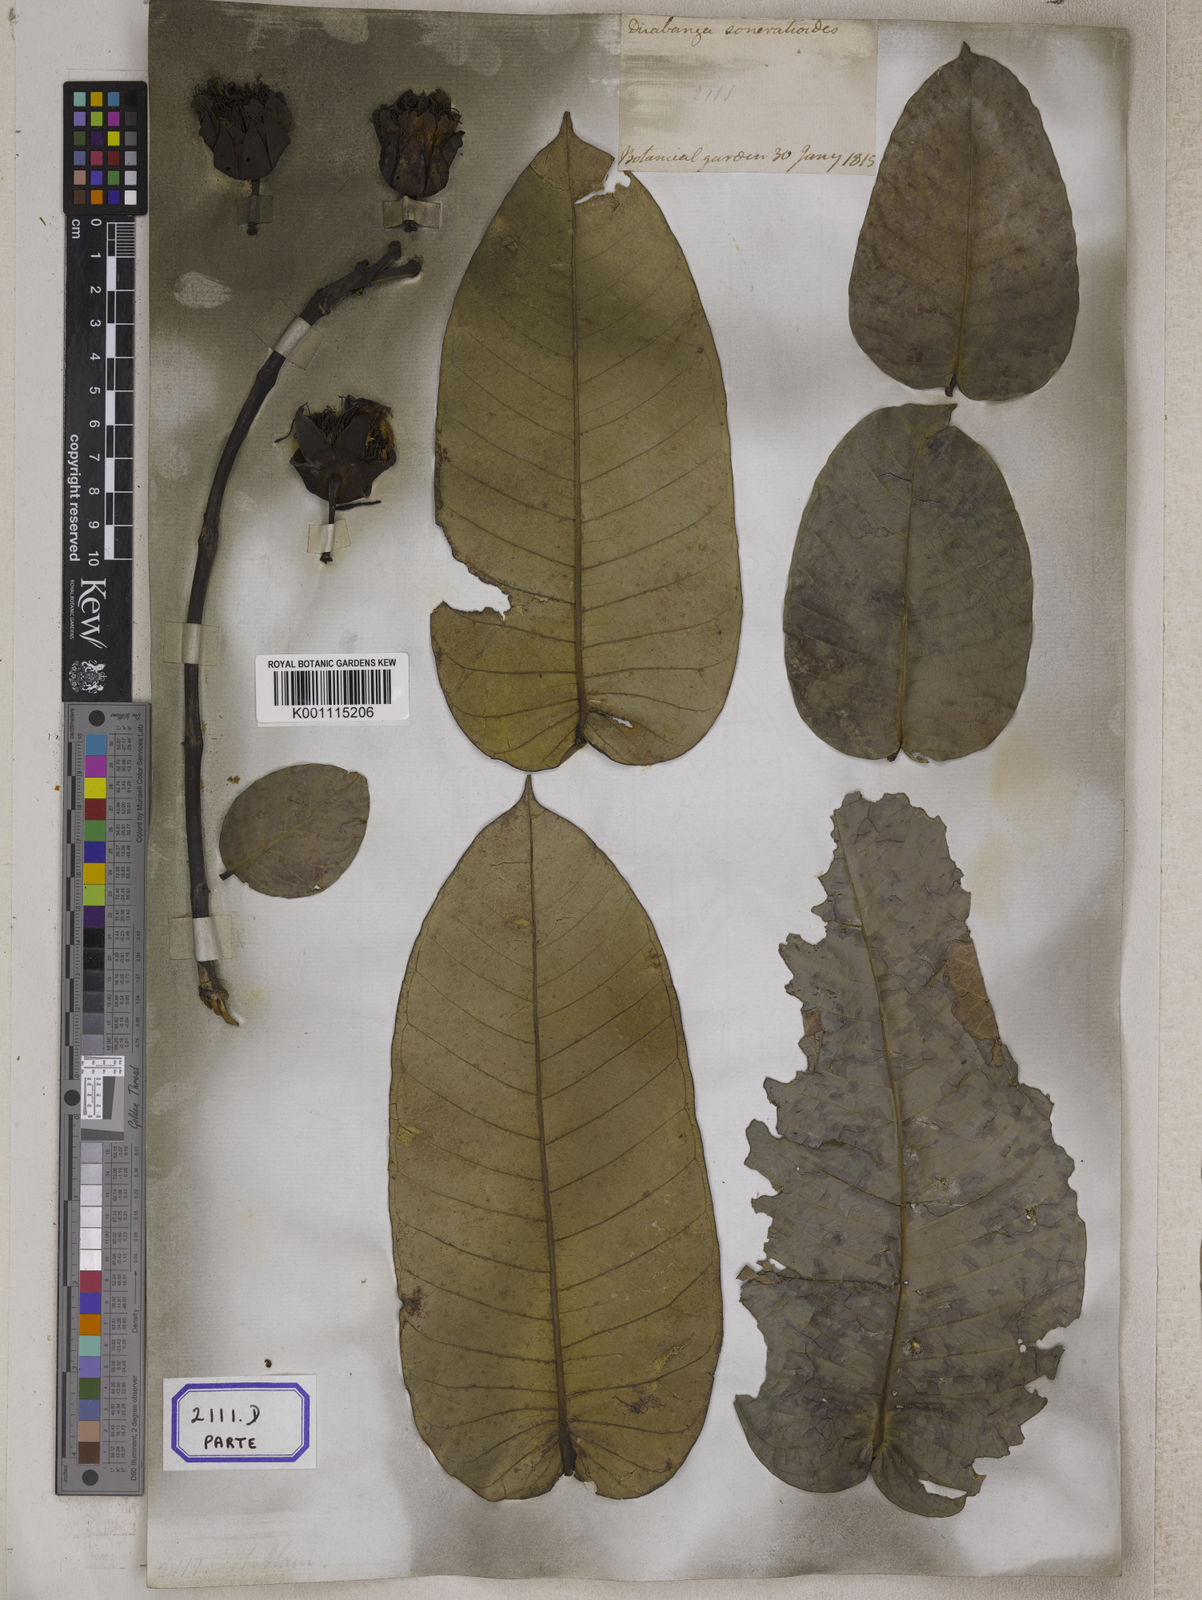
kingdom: Plantae
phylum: Tracheophyta
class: Magnoliopsida
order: Myrtales
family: Lythraceae
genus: Lagerstroemia
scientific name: Lagerstroemia
